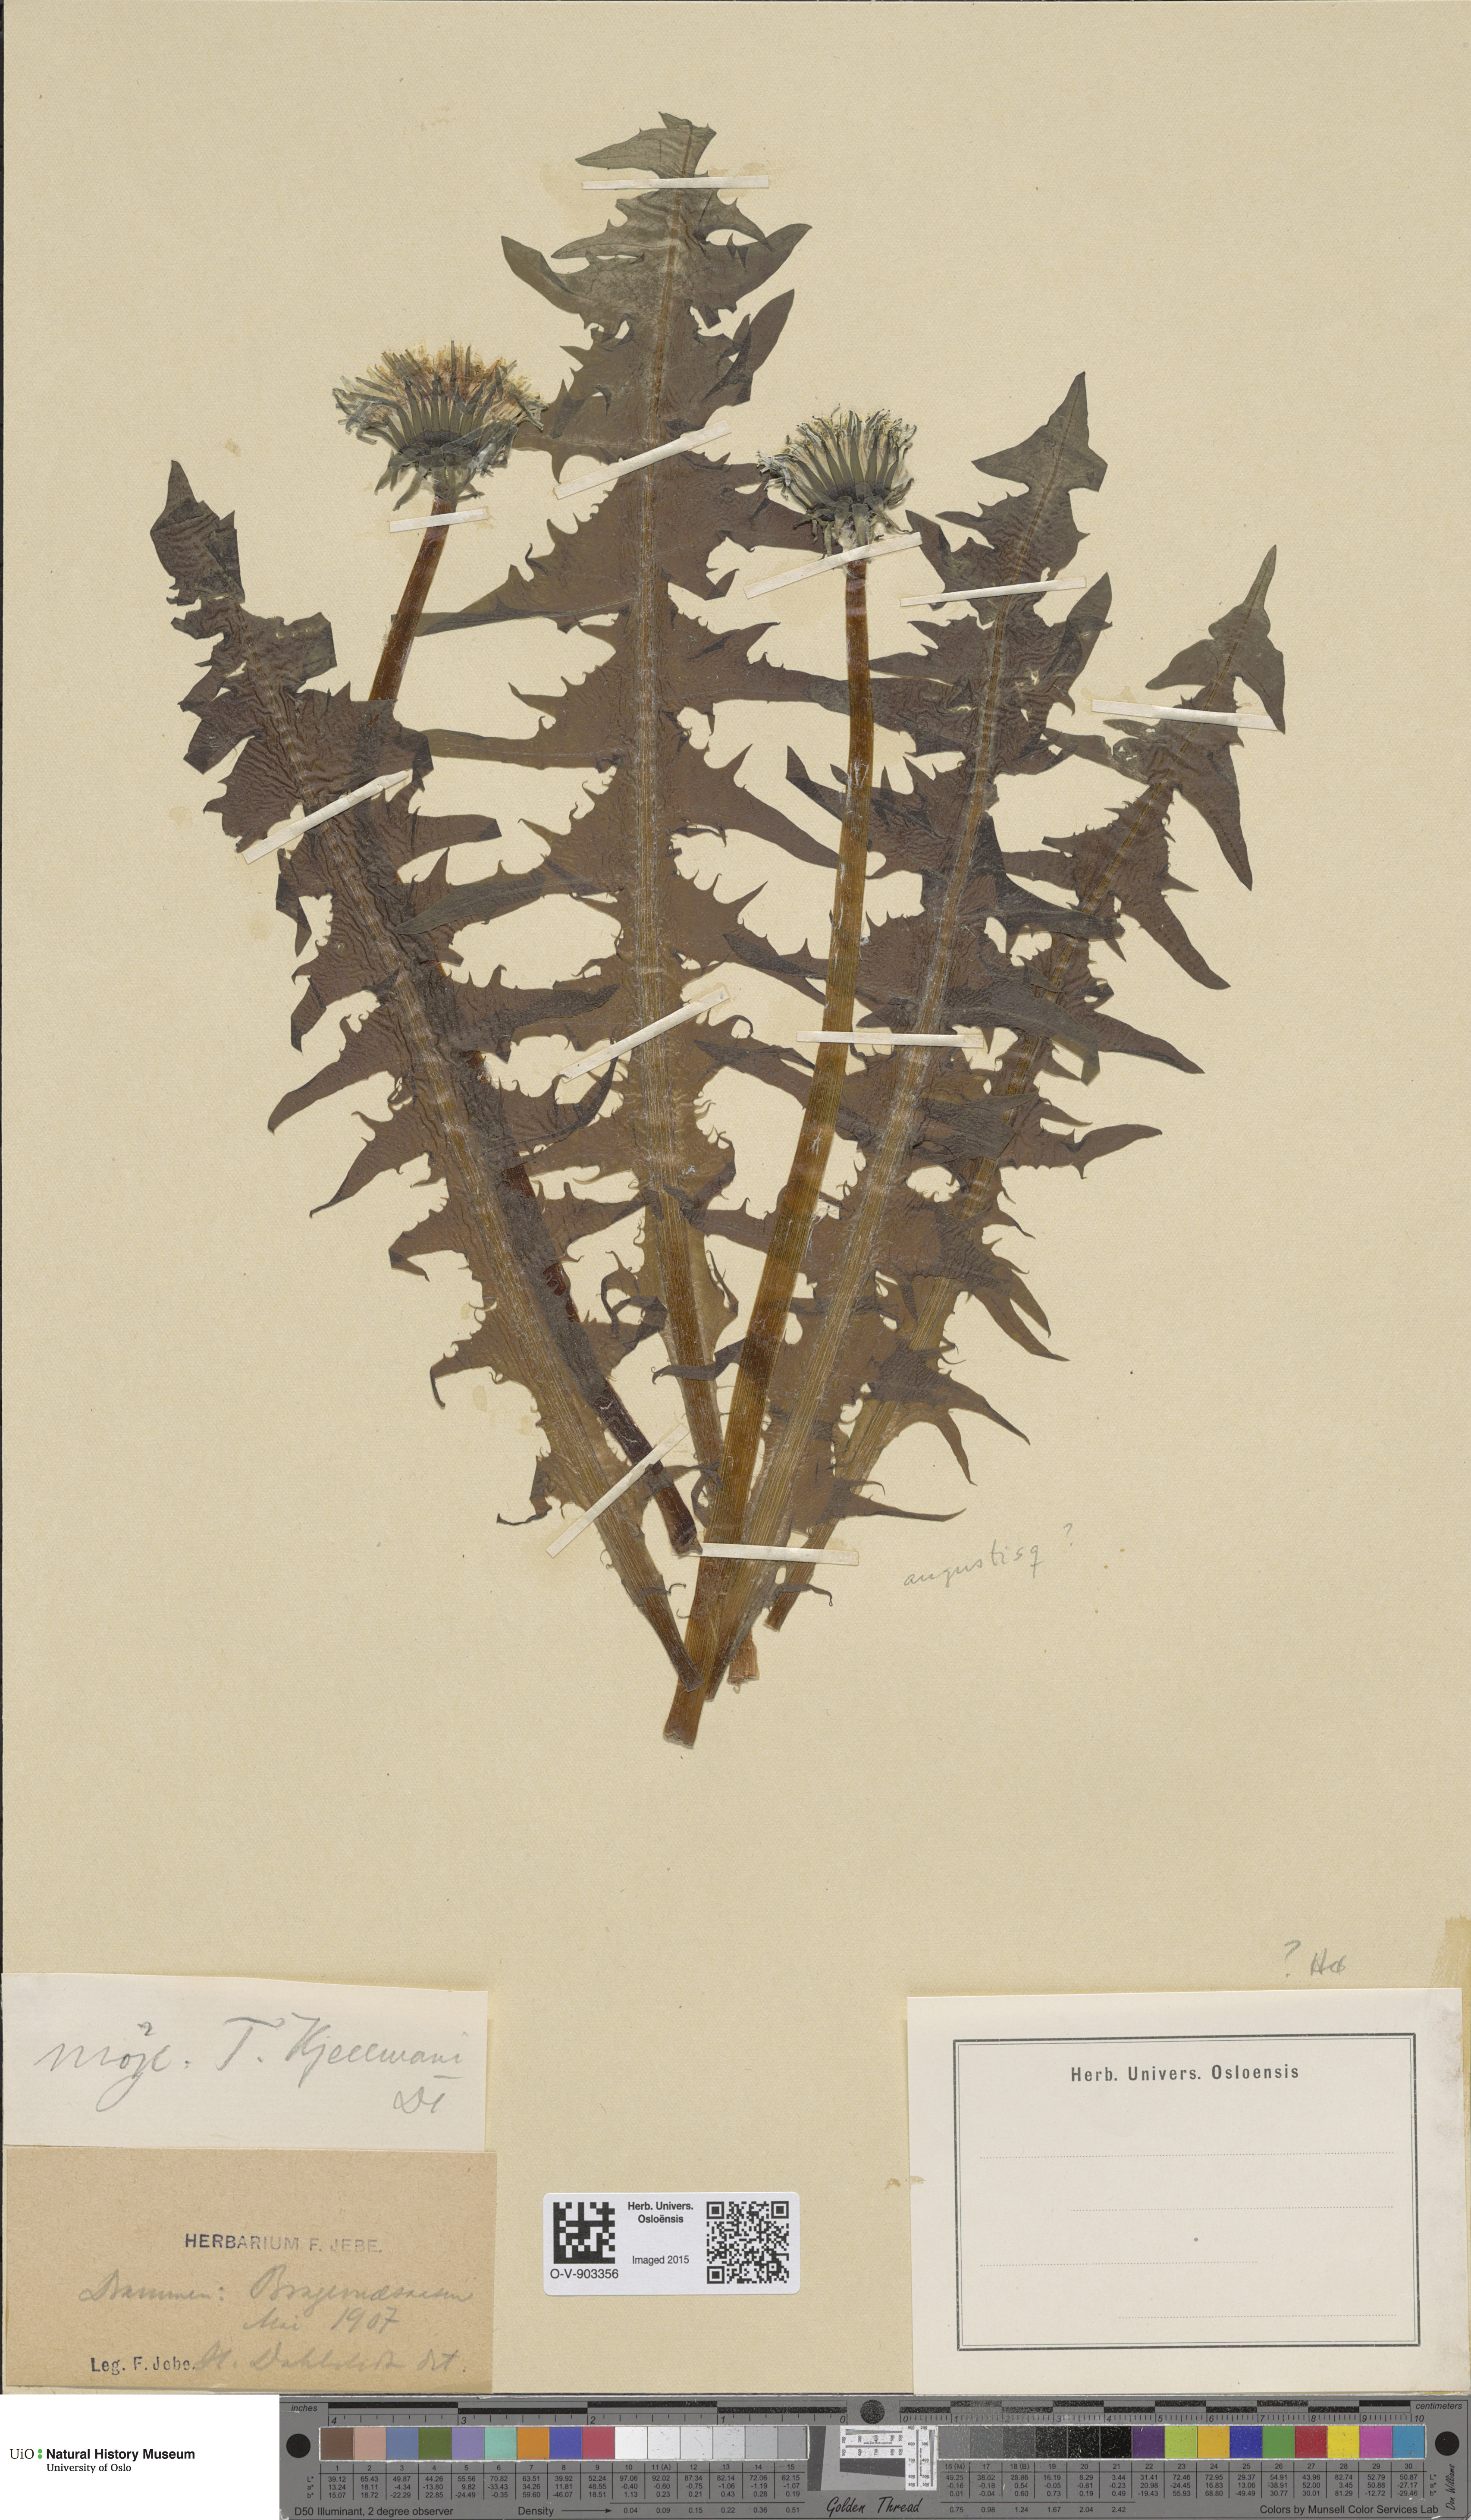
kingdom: Plantae
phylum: Tracheophyta
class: Magnoliopsida
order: Asterales
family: Asteraceae
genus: Taraxacum
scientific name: Taraxacum kjellmanii
